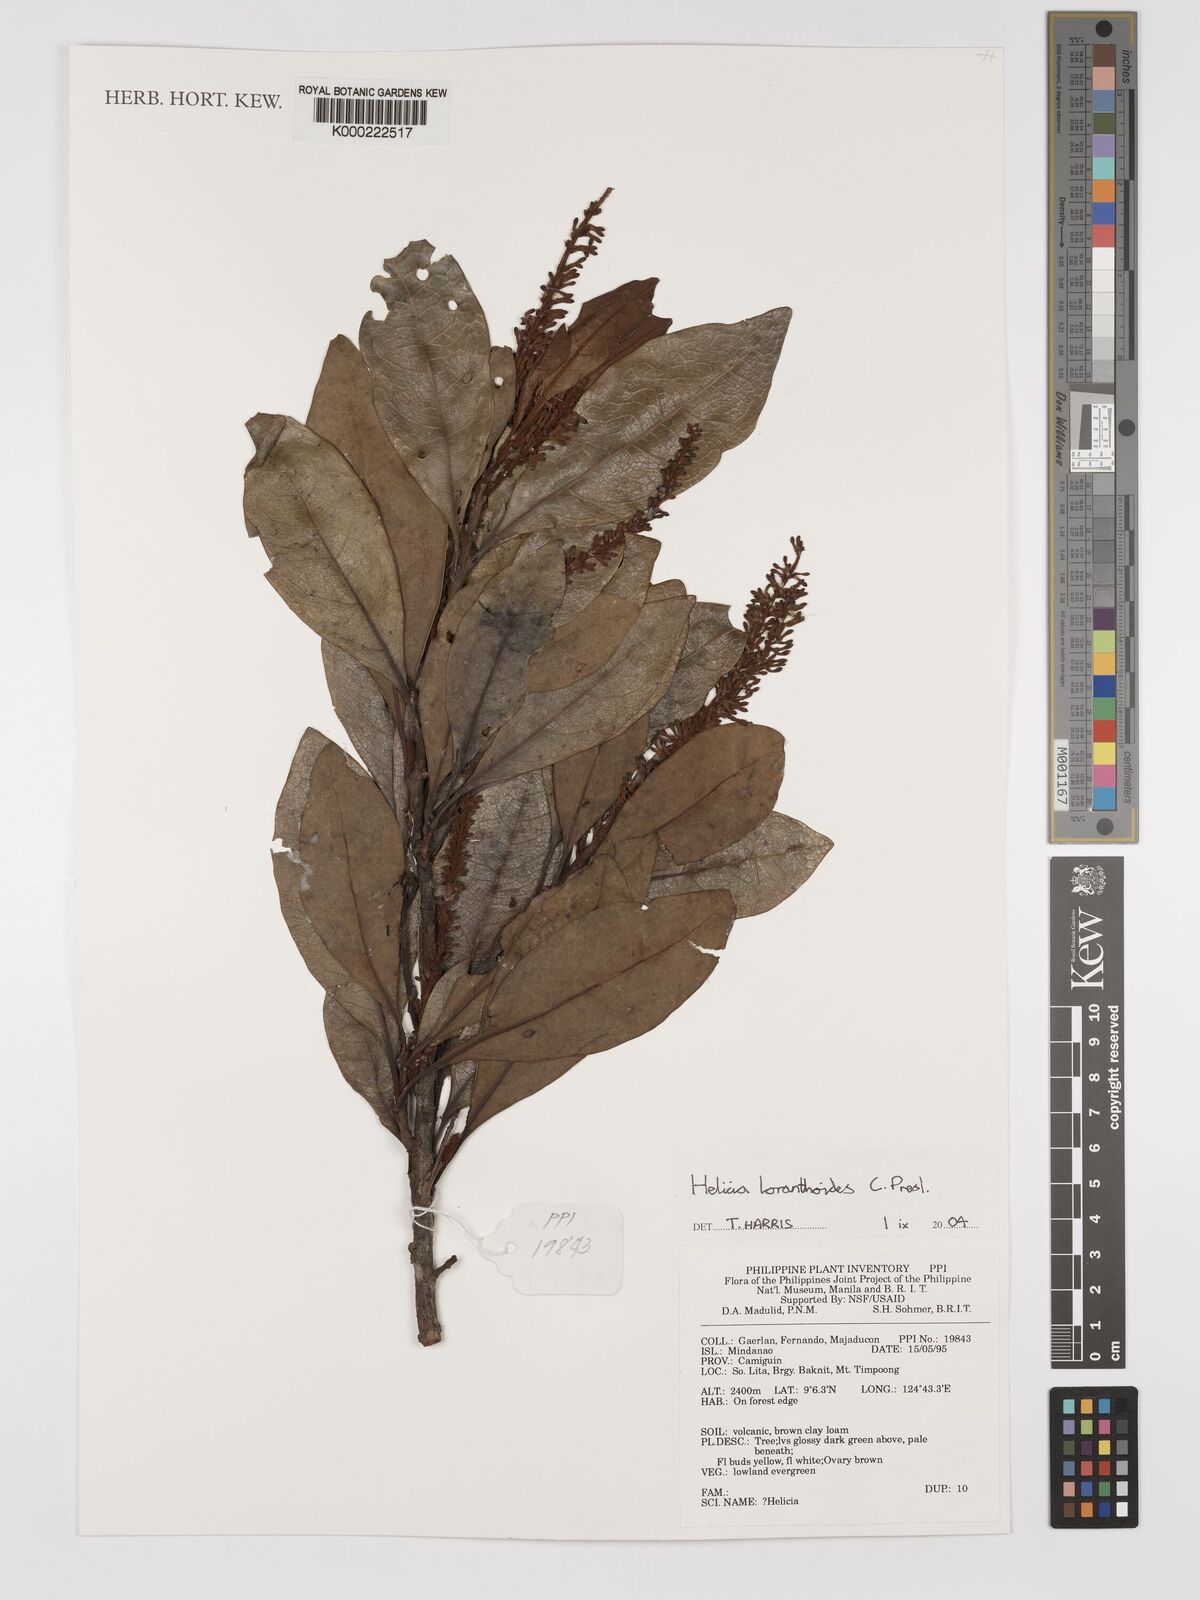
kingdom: Plantae
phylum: Tracheophyta
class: Magnoliopsida
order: Proteales
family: Proteaceae
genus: Helicia
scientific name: Helicia loranthoides
